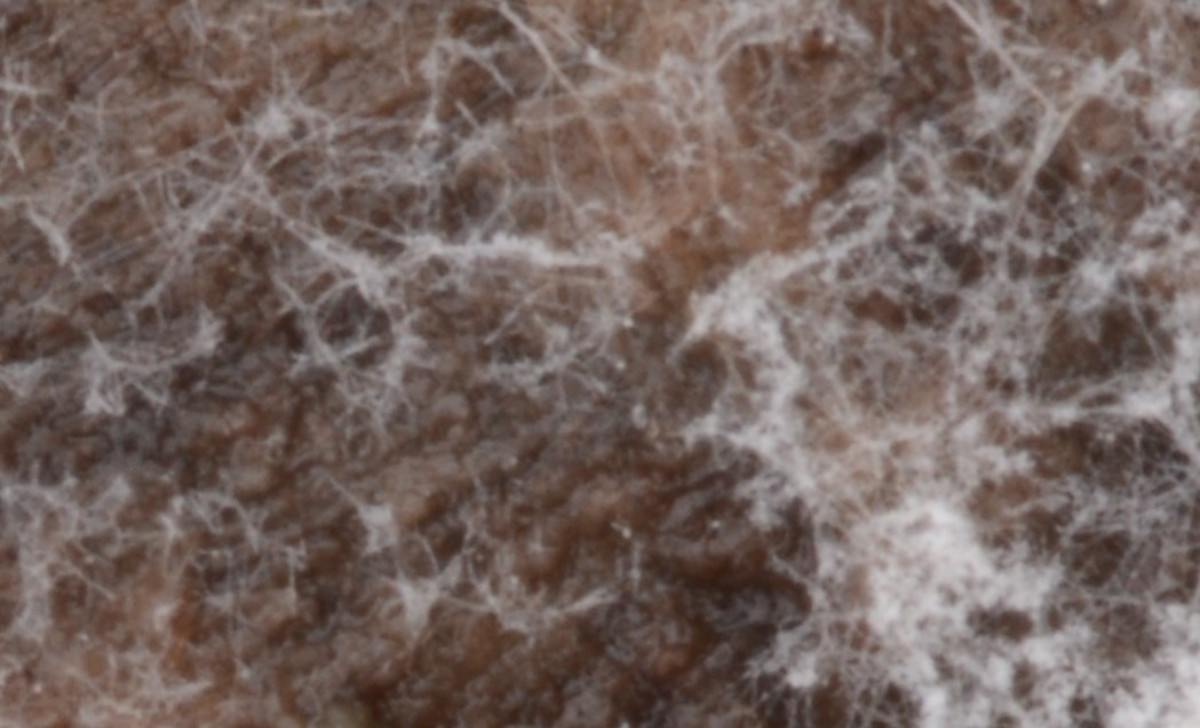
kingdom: Fungi
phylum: Basidiomycota
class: Agaricomycetes
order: Cantharellales
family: Hydnaceae
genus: Sistotrema
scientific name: Sistotrema sernanderi
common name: sur kroneskorpe
